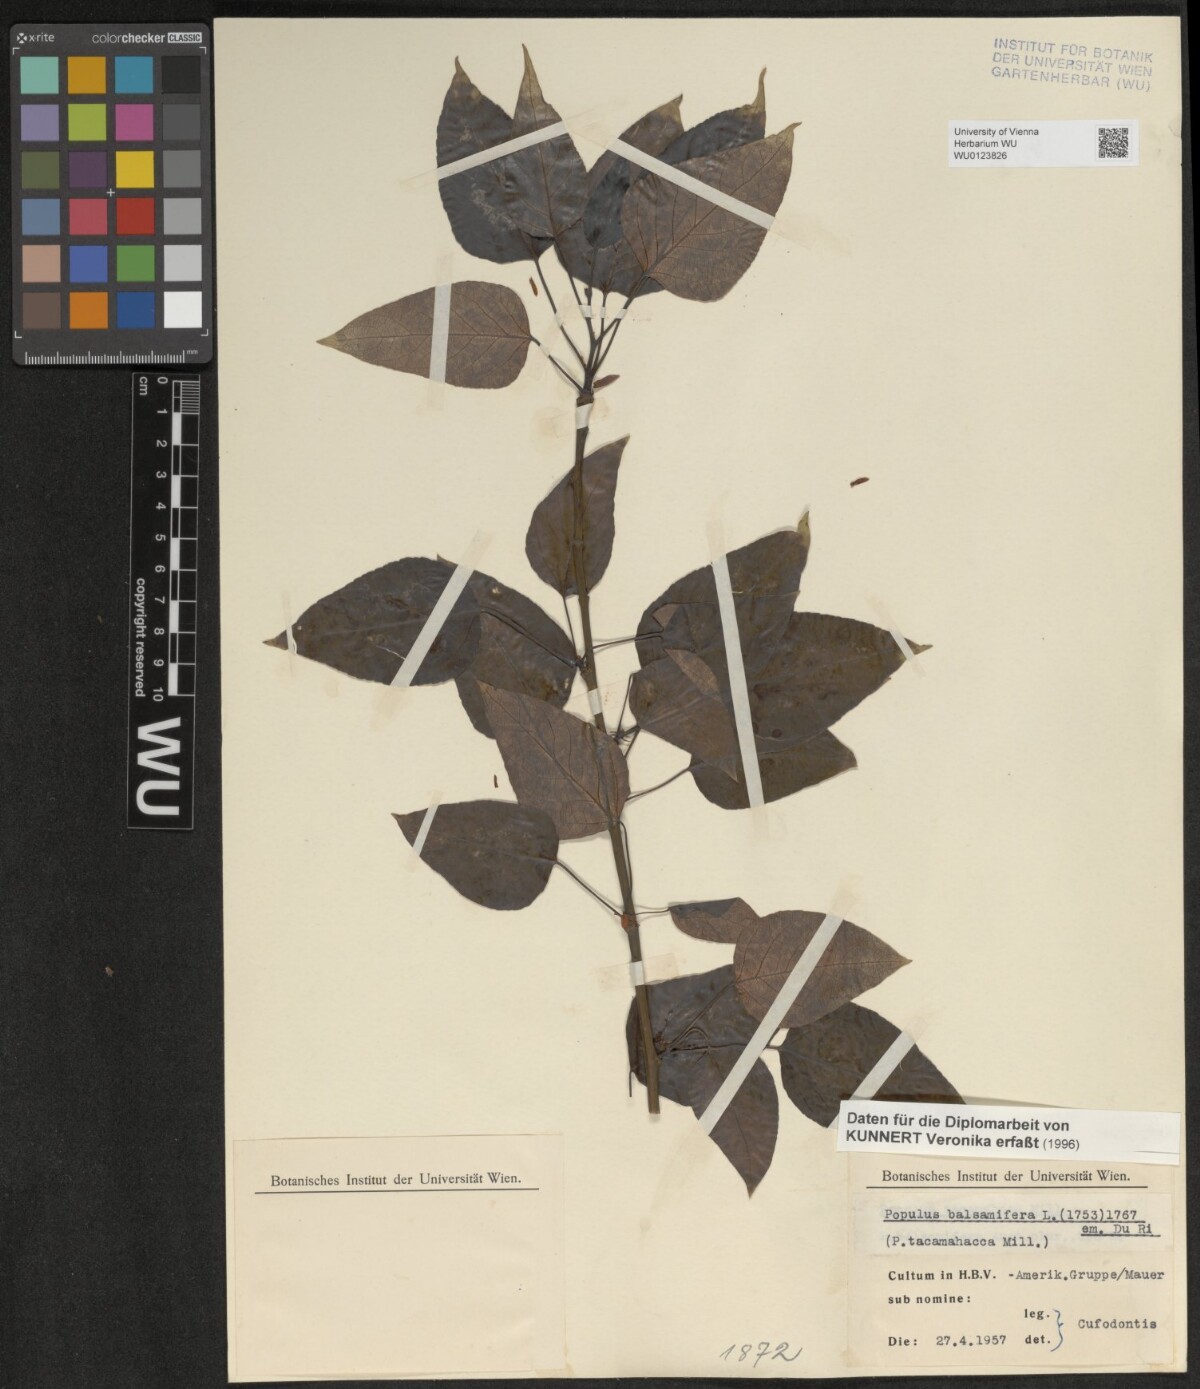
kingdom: Plantae
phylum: Tracheophyta
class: Magnoliopsida
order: Malpighiales
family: Salicaceae
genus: Populus
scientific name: Populus balsamifera
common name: Balsam poplar
